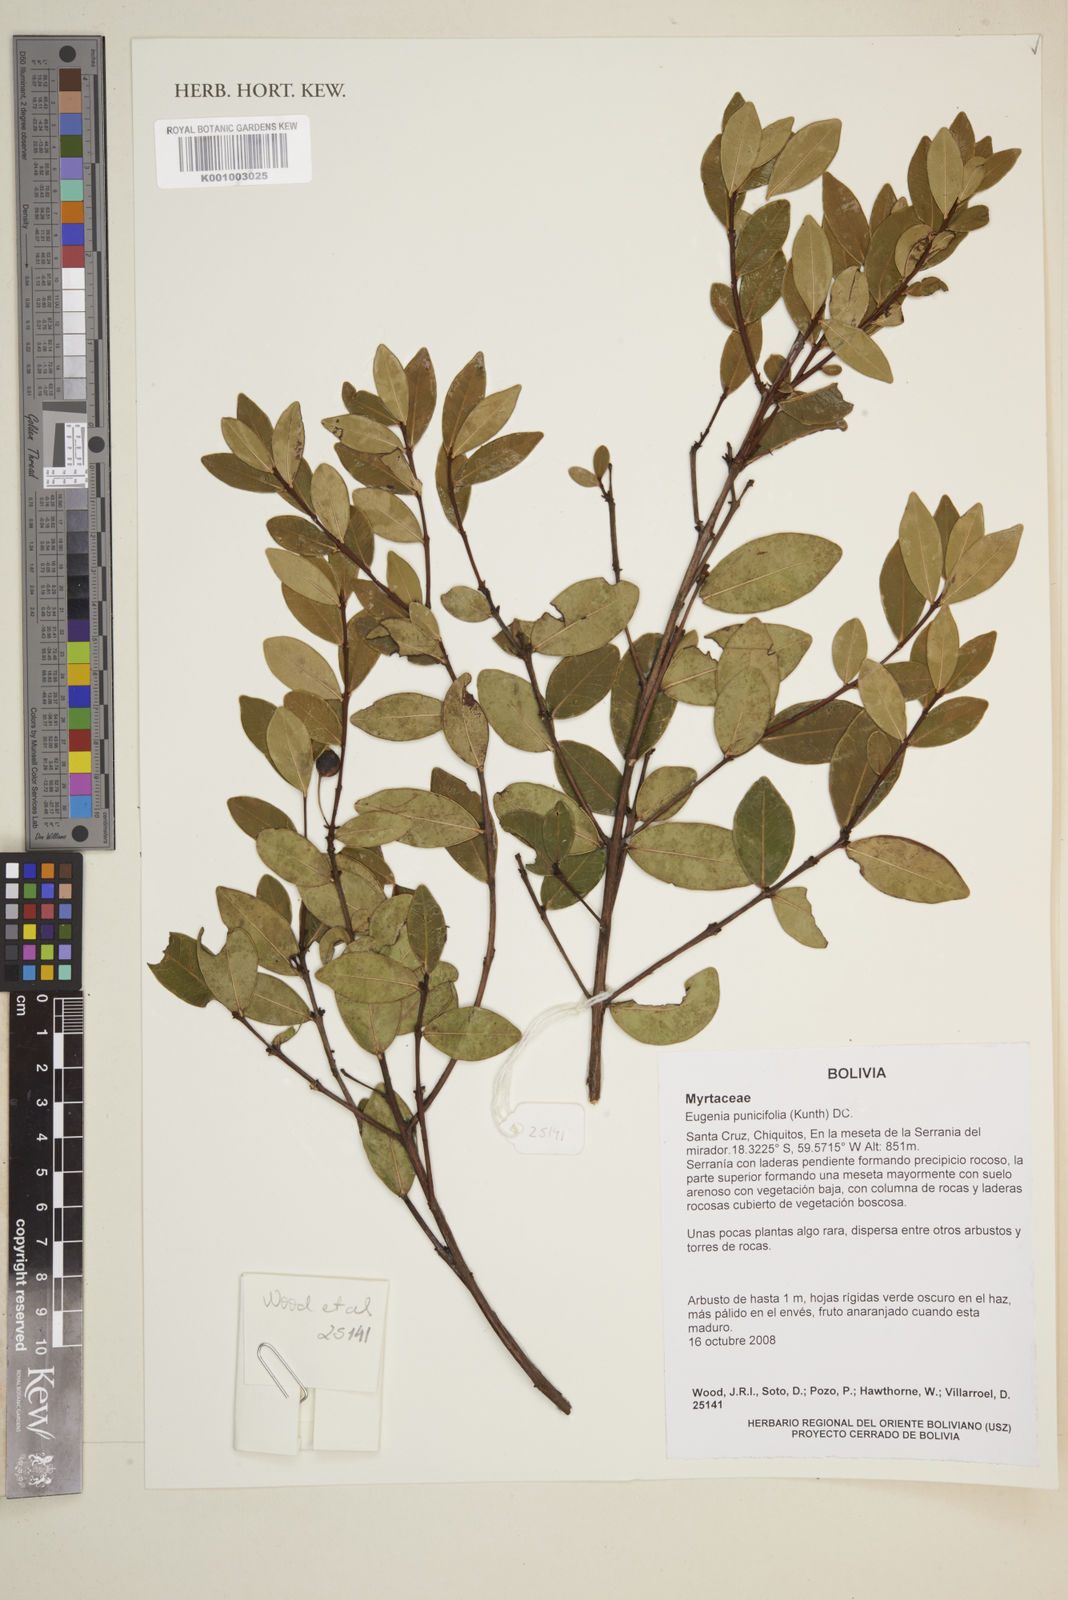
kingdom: Plantae
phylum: Tracheophyta
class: Magnoliopsida
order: Myrtales
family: Myrtaceae
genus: Eugenia
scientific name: Eugenia punicifolia
